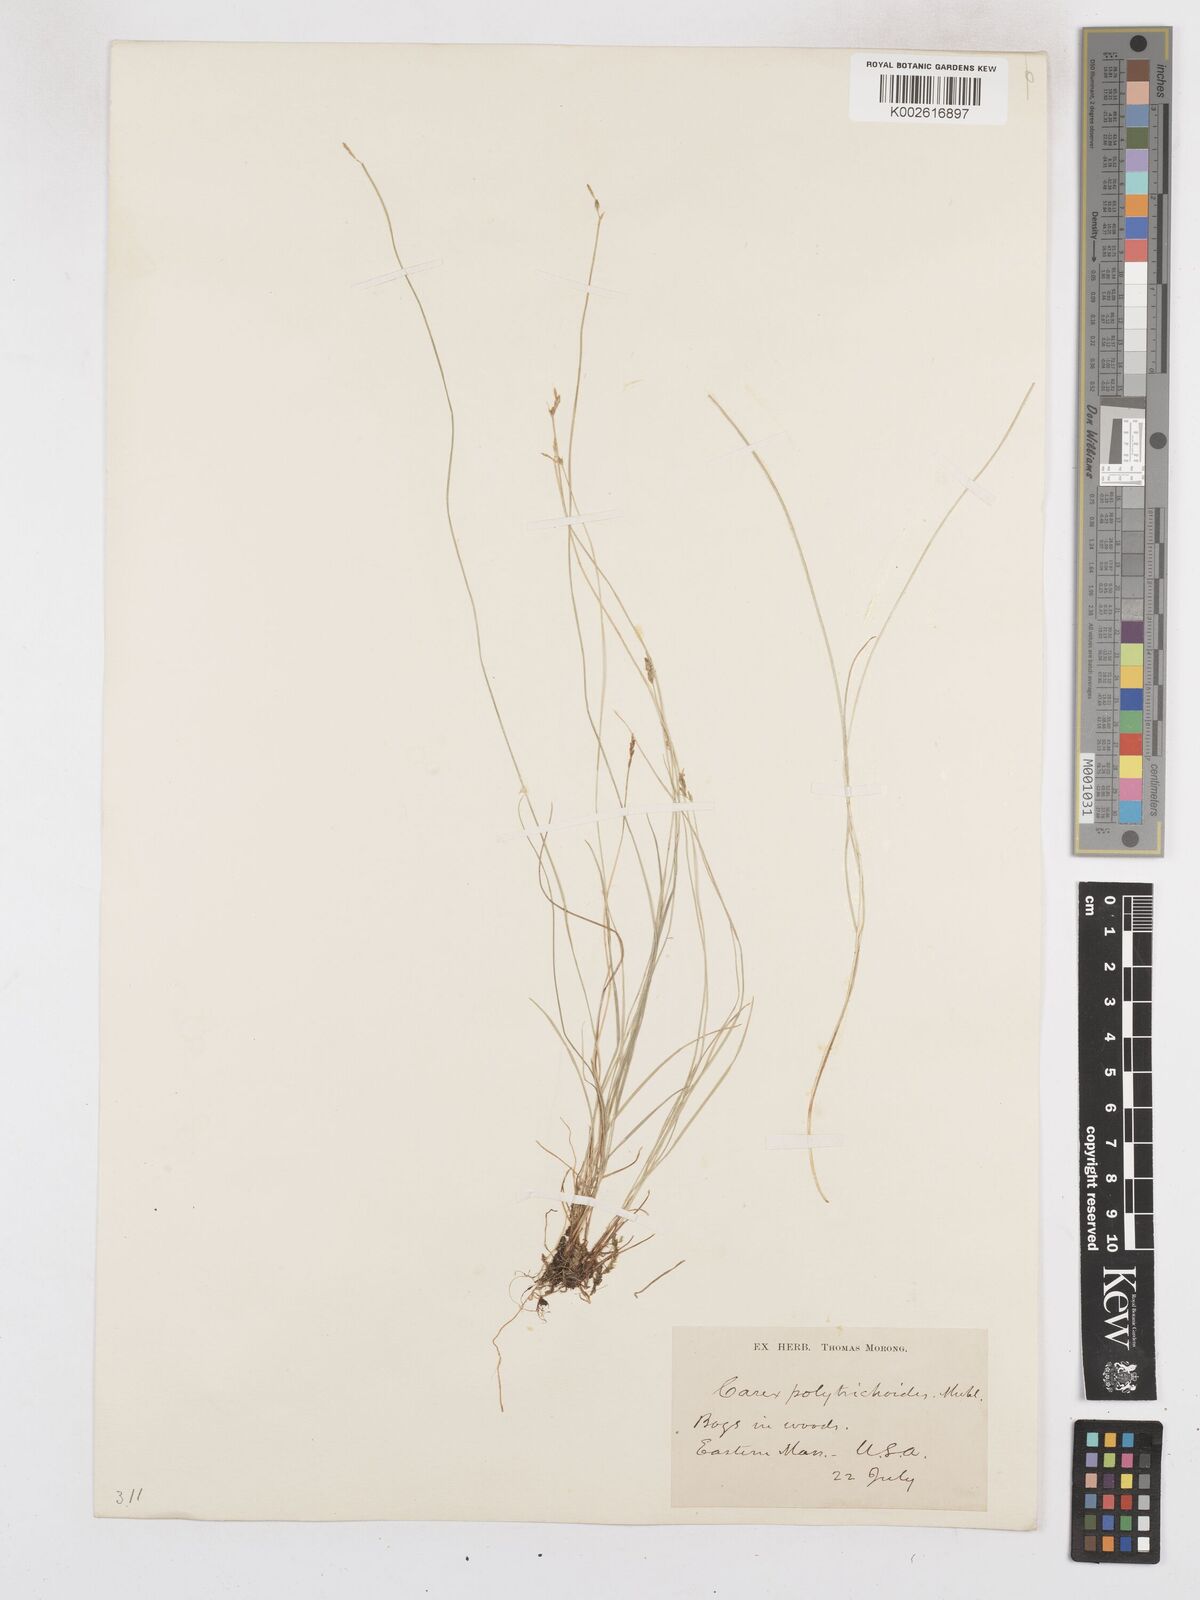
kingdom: Plantae
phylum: Tracheophyta
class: Liliopsida
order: Poales
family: Cyperaceae
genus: Carex
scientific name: Carex leptalea
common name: Bristly-stalked sedge
